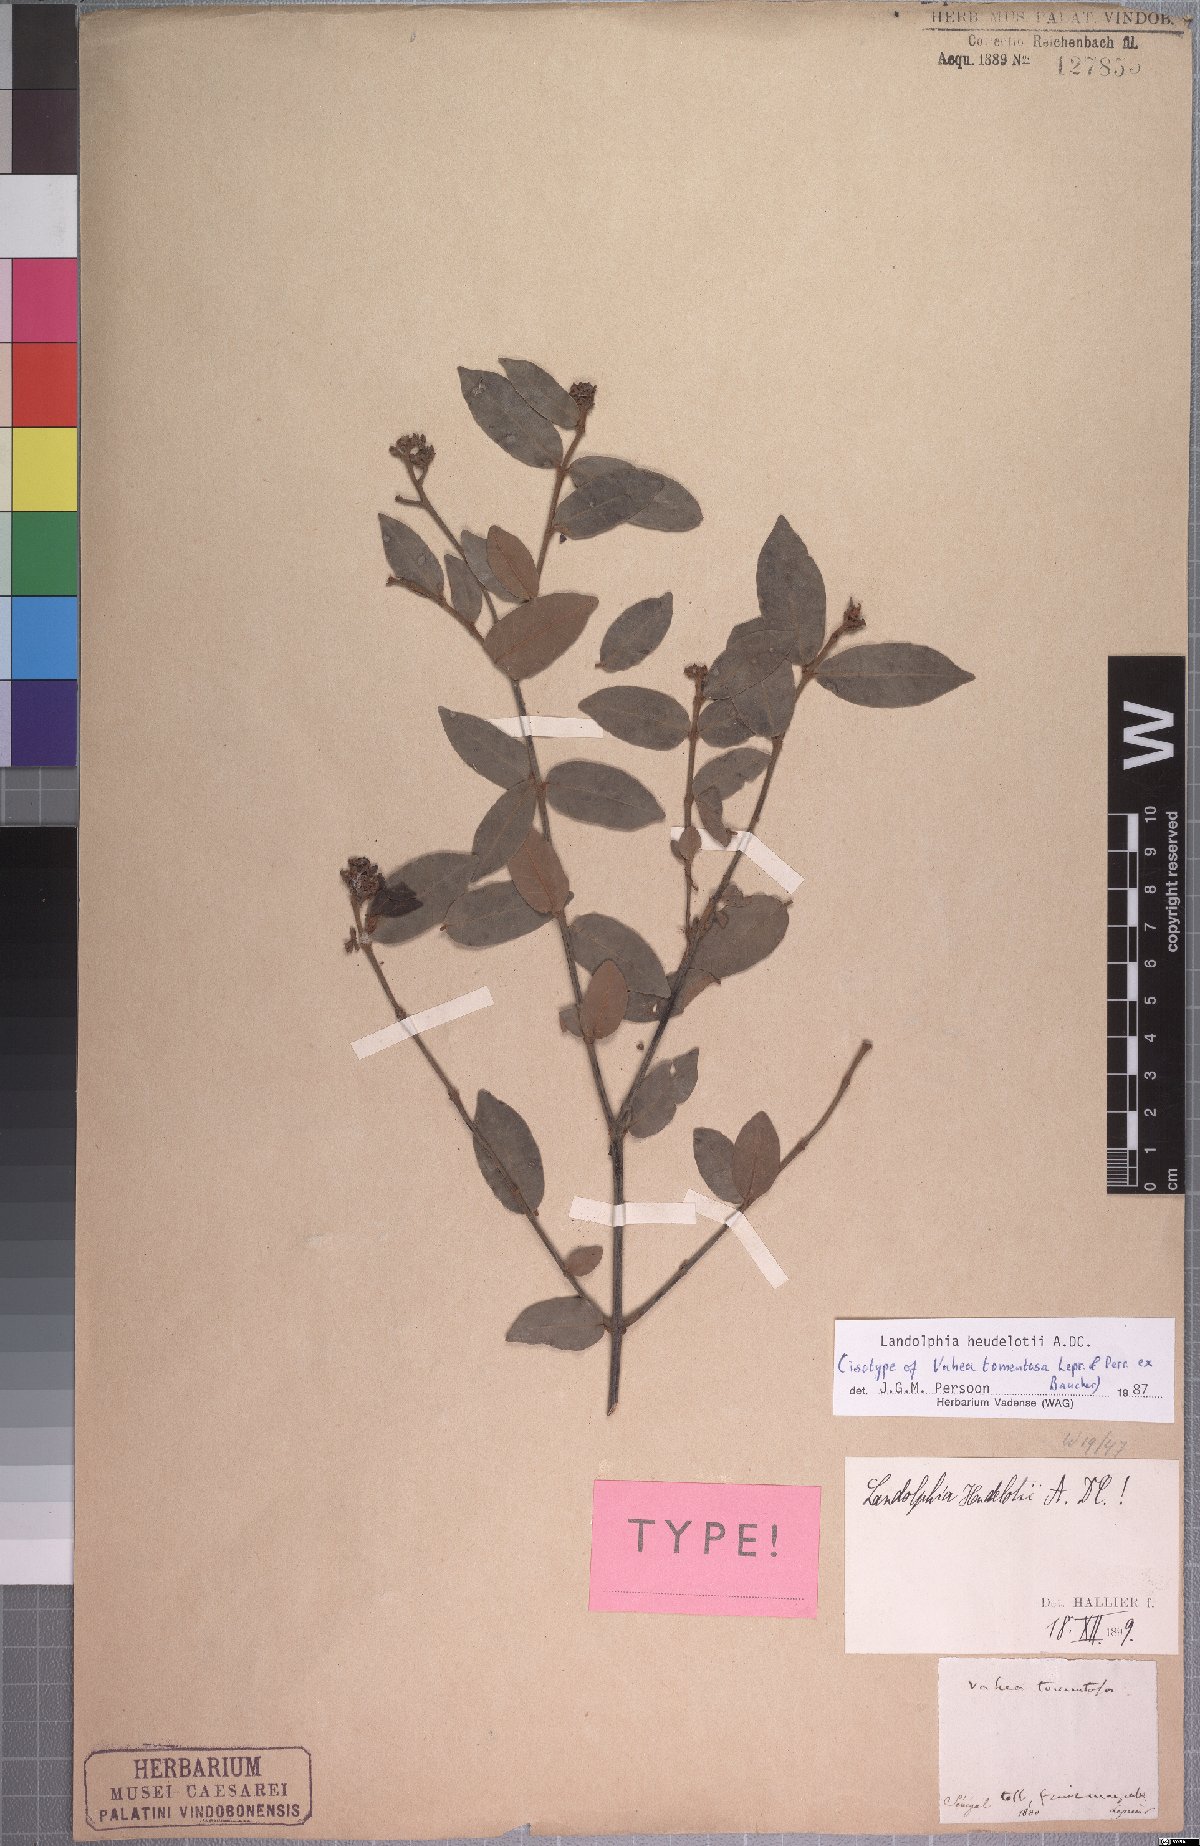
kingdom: Plantae
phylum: Tracheophyta
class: Magnoliopsida
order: Gentianales
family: Apocynaceae
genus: Landolphia
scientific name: Landolphia heudelotii
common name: Landolphia-rubber
